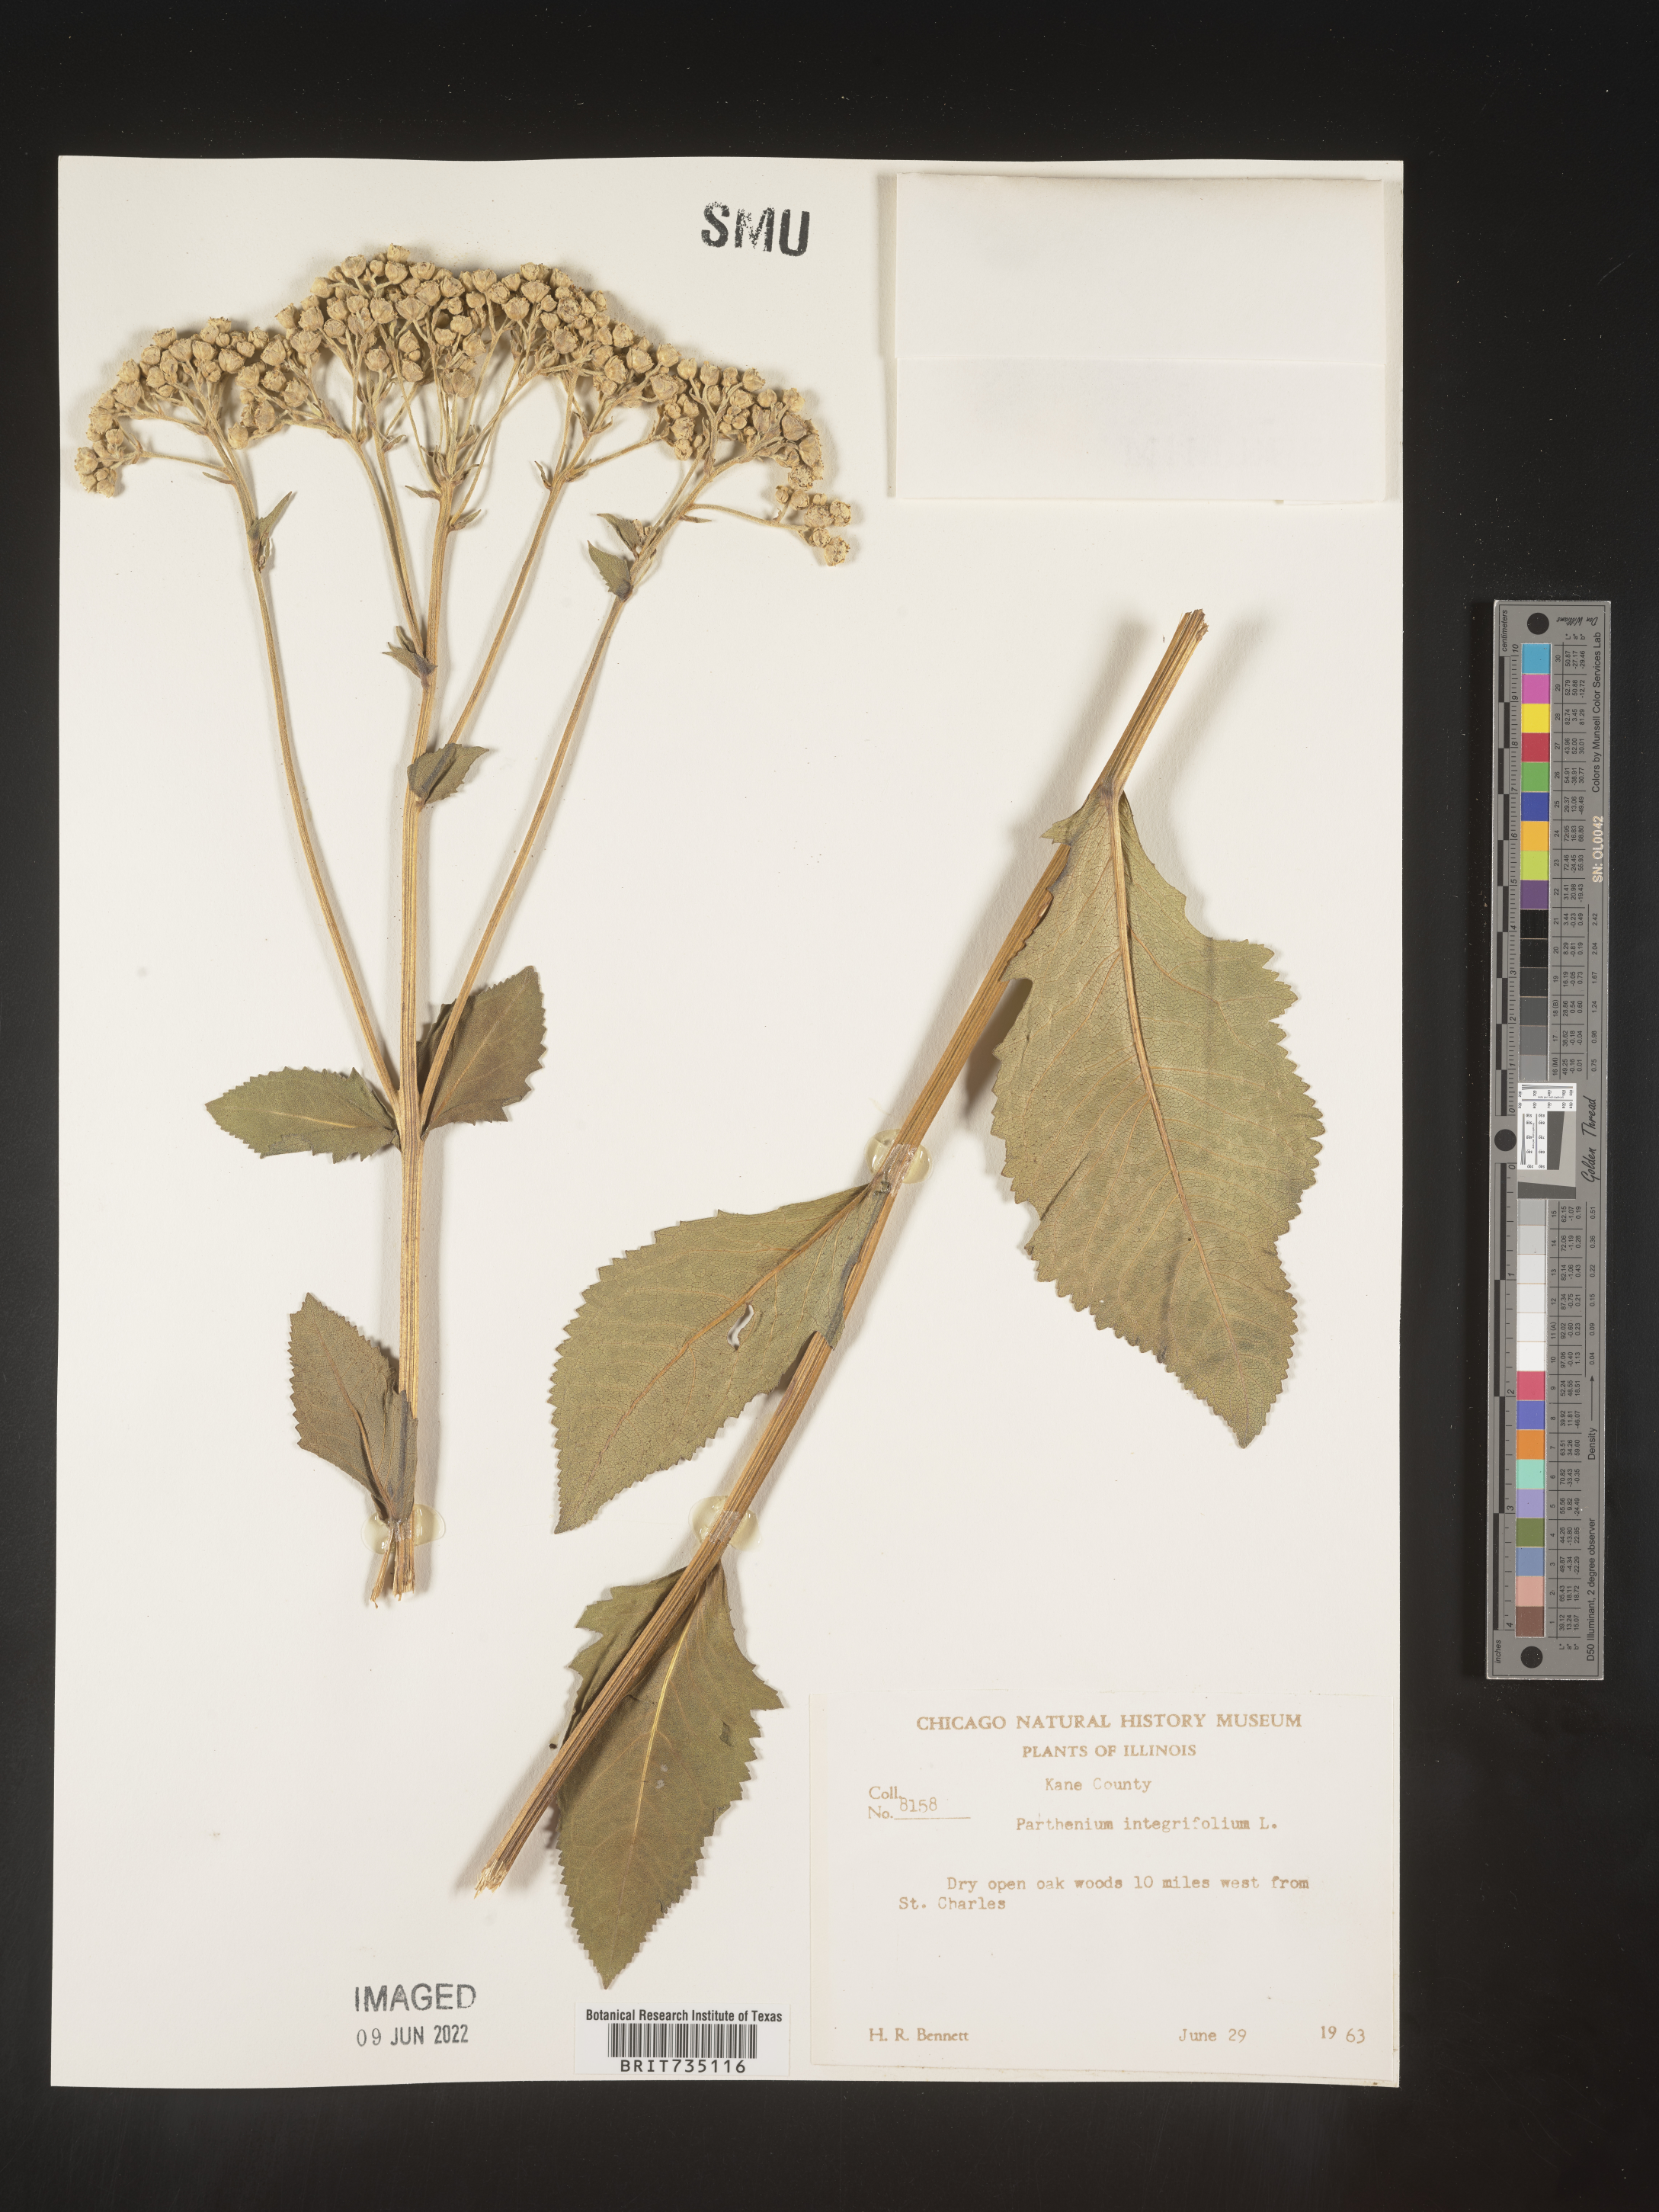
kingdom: Plantae
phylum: Tracheophyta
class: Magnoliopsida
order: Asterales
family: Asteraceae
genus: Parthenium
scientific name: Parthenium integrifolium
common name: American feverfew
